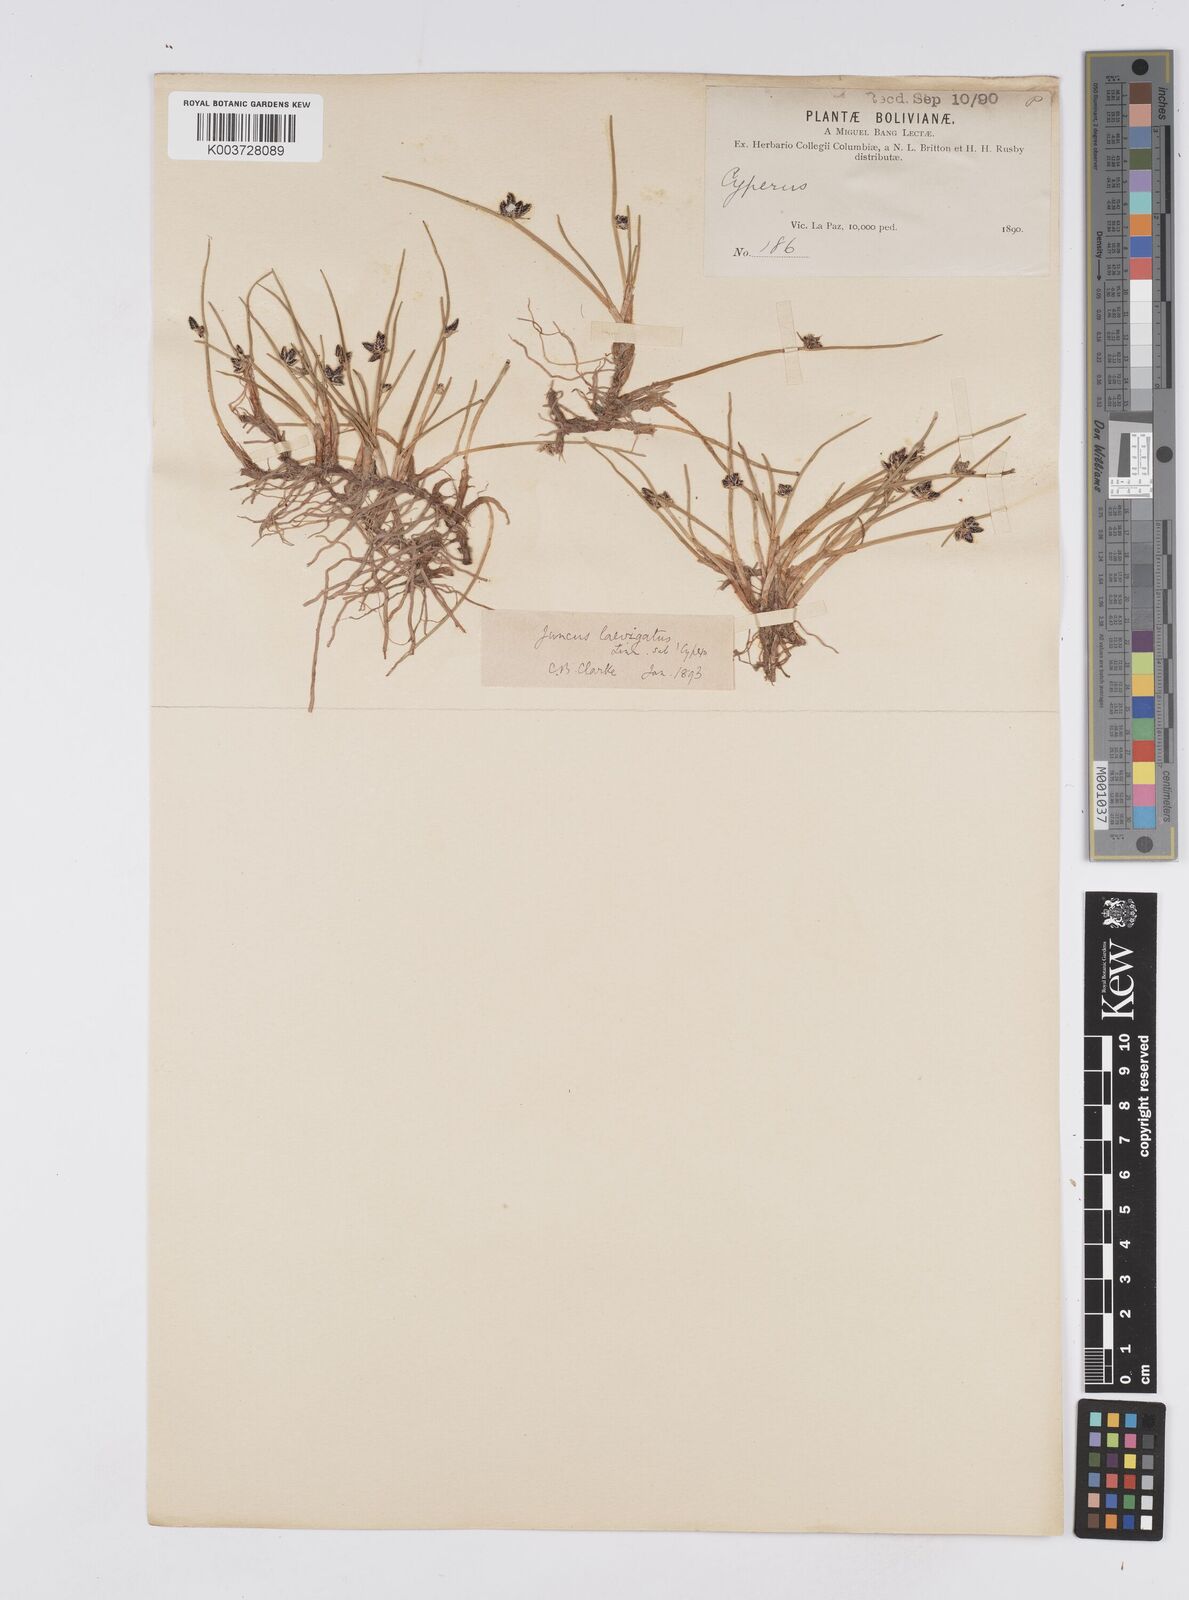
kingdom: Plantae
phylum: Tracheophyta
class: Liliopsida
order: Poales
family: Cyperaceae
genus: Cyperus
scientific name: Cyperus laevigatus
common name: Smooth flat sedge
